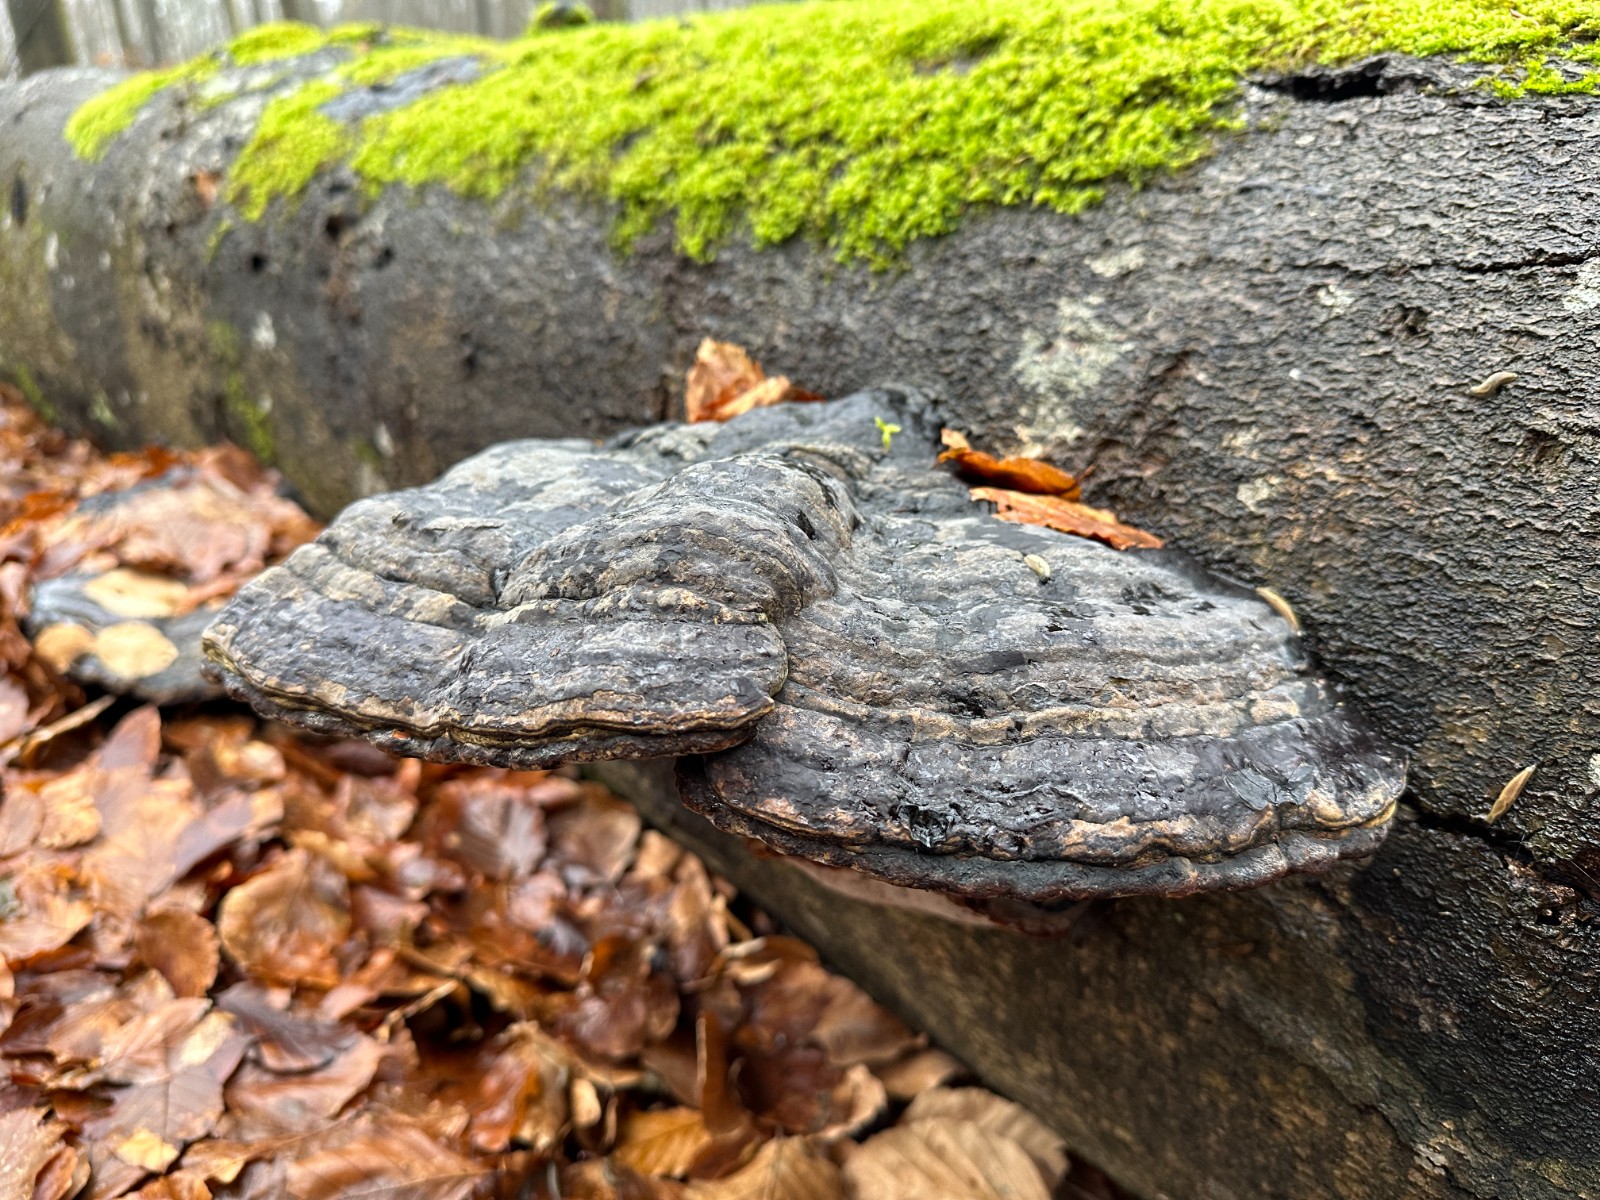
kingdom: Fungi
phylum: Basidiomycota
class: Agaricomycetes
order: Polyporales
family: Polyporaceae
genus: Fomes
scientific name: Fomes fomentarius
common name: tøndersvamp
